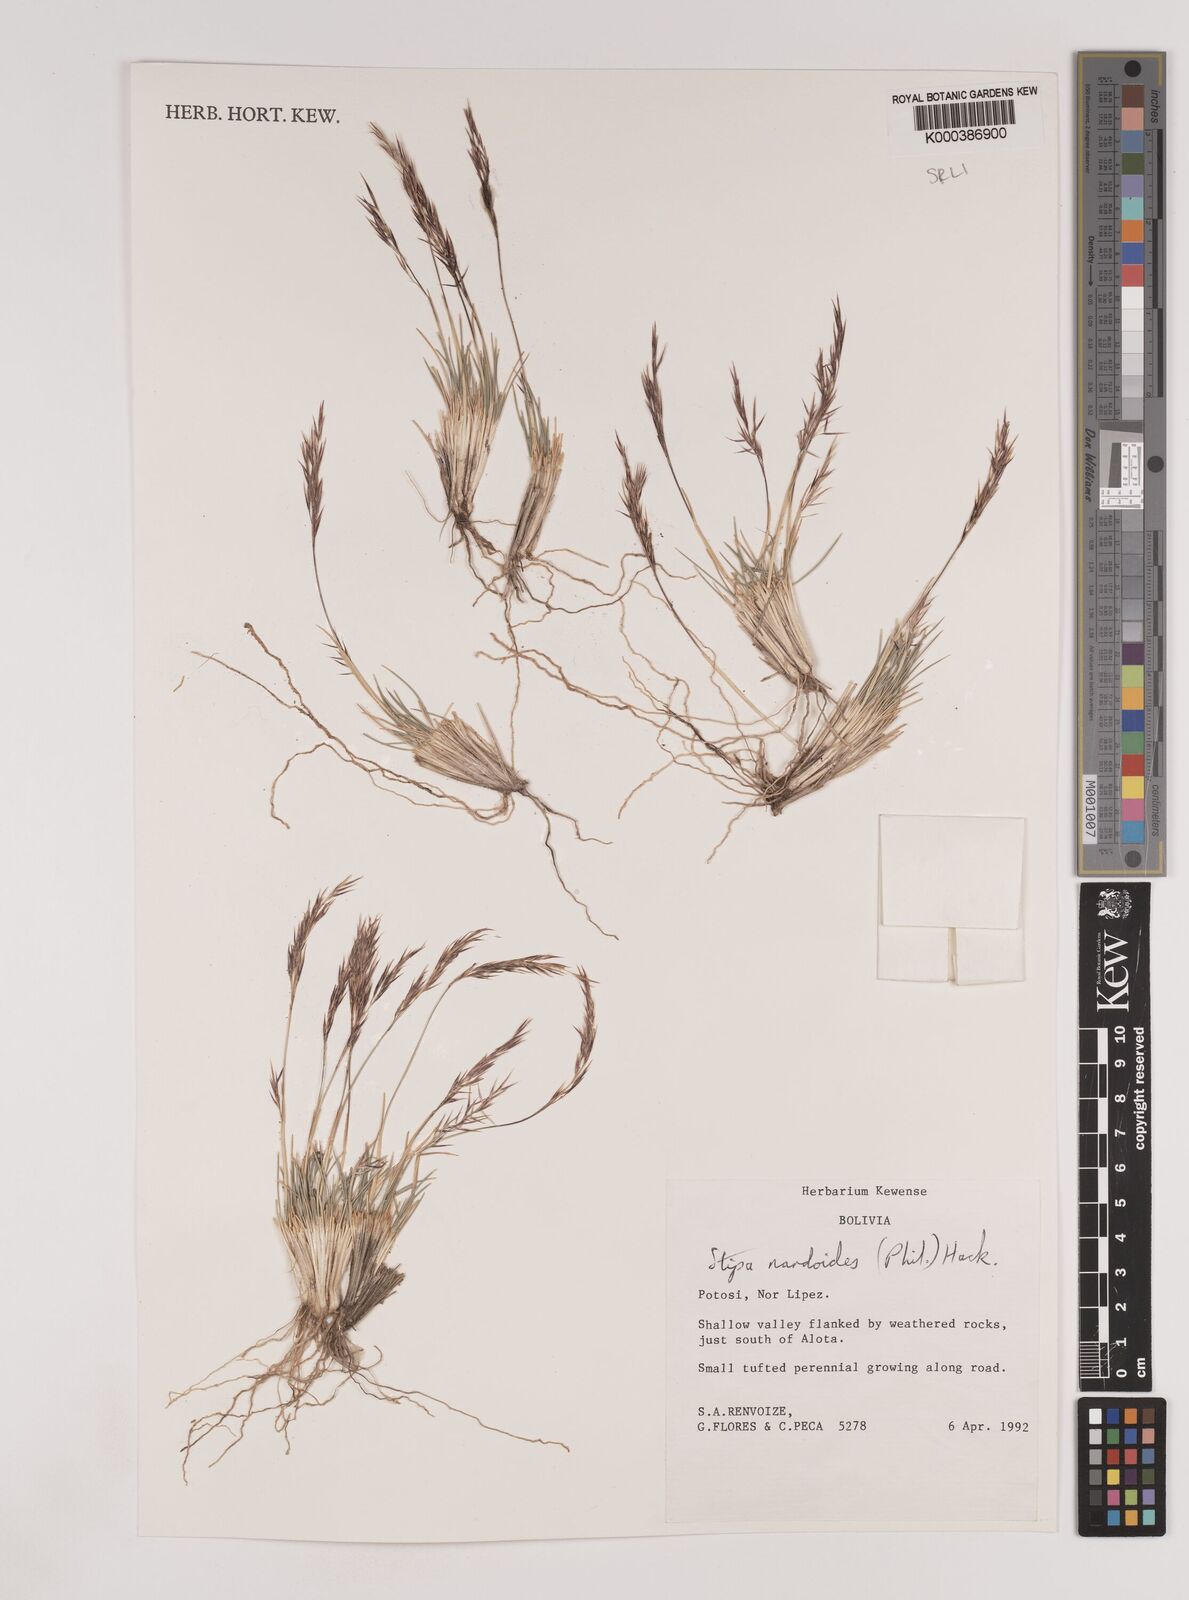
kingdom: Plantae
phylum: Tracheophyta
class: Liliopsida
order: Poales
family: Poaceae
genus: Nassella
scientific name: Nassella nardoides
